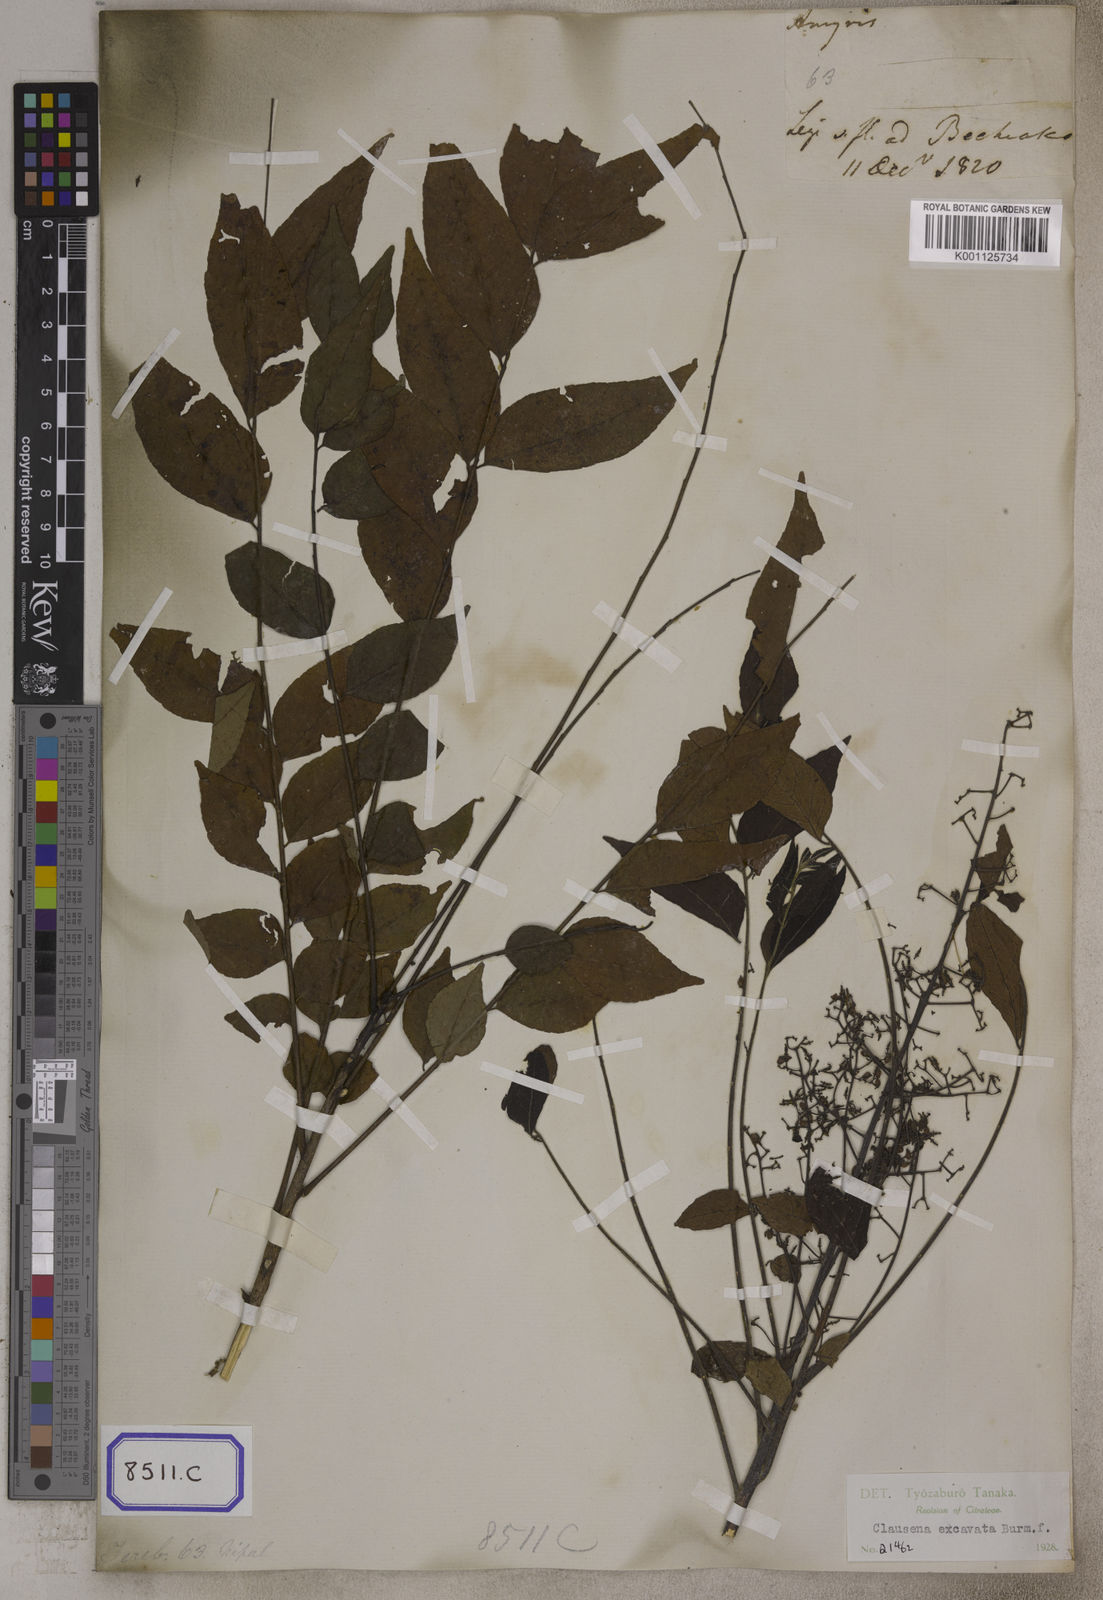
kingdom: Plantae
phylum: Tracheophyta
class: Magnoliopsida
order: Sapindales
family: Rutaceae
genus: Clausena
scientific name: Clausena
